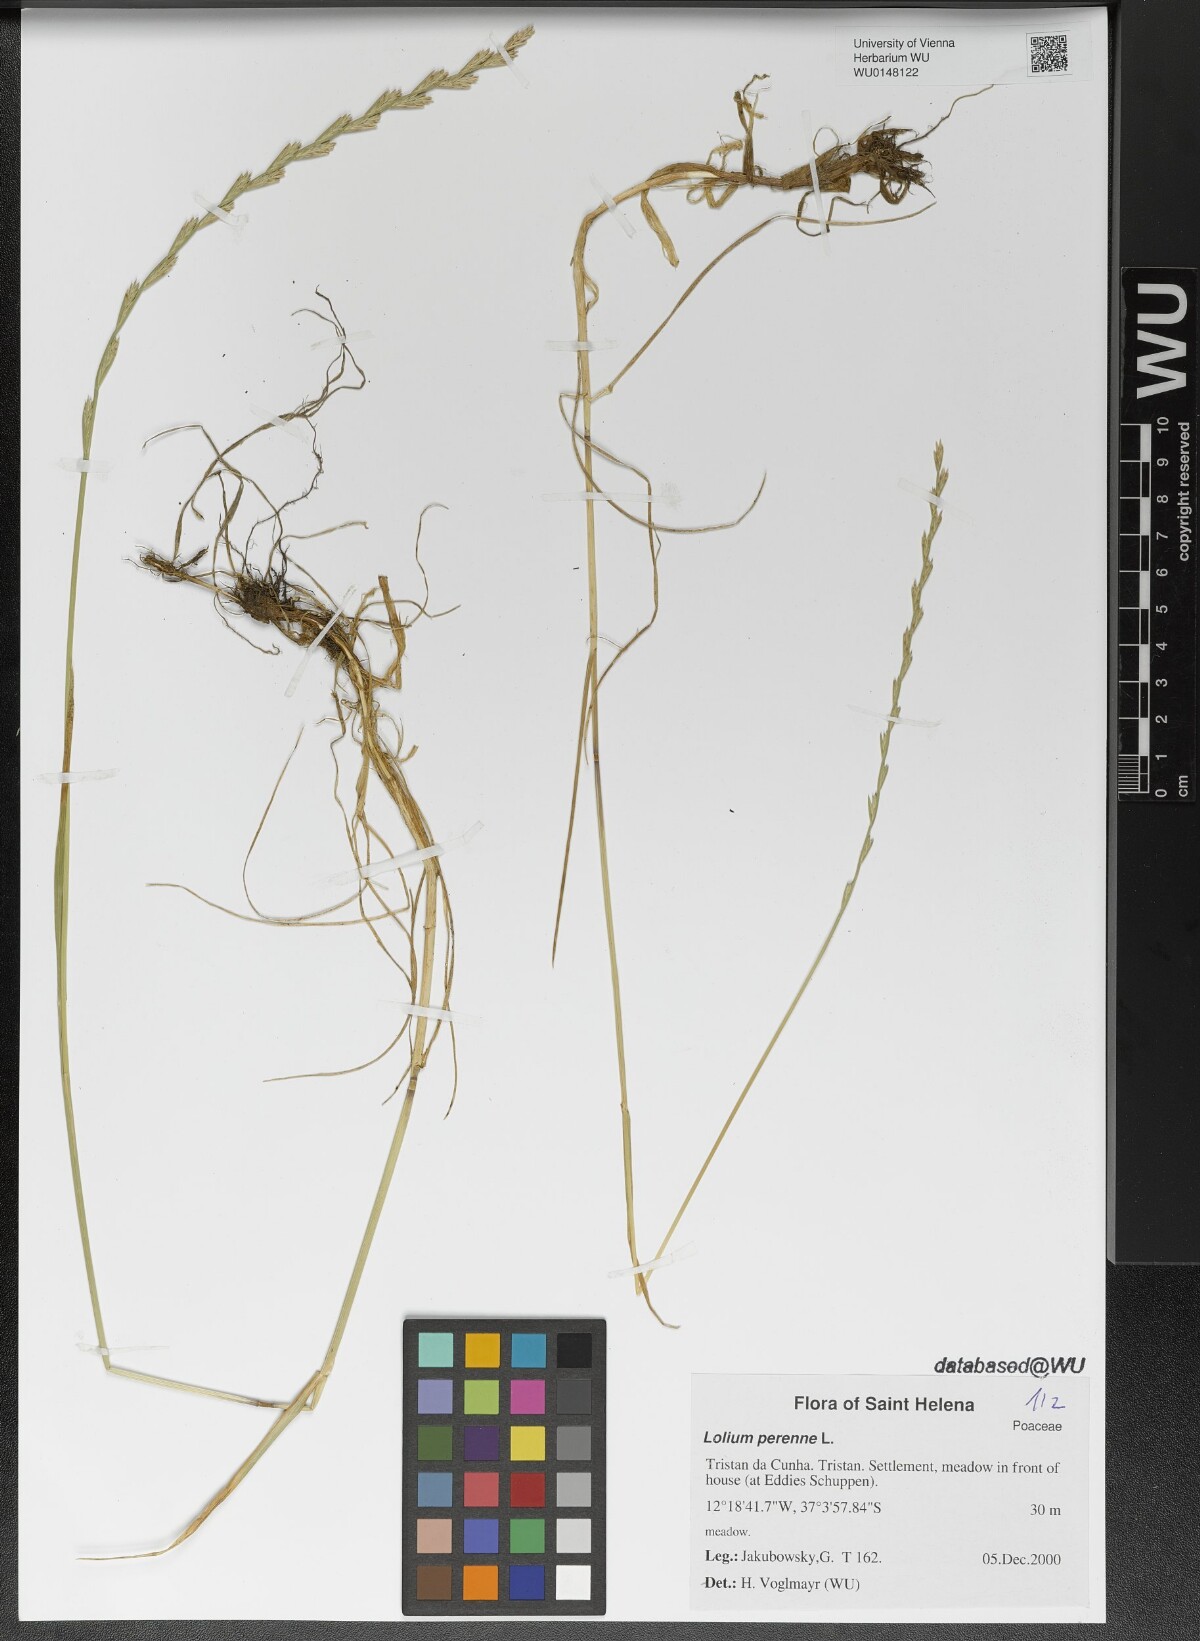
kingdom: Plantae
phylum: Tracheophyta
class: Liliopsida
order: Poales
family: Poaceae
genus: Lolium
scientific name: Lolium perenne
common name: Perennial ryegrass
